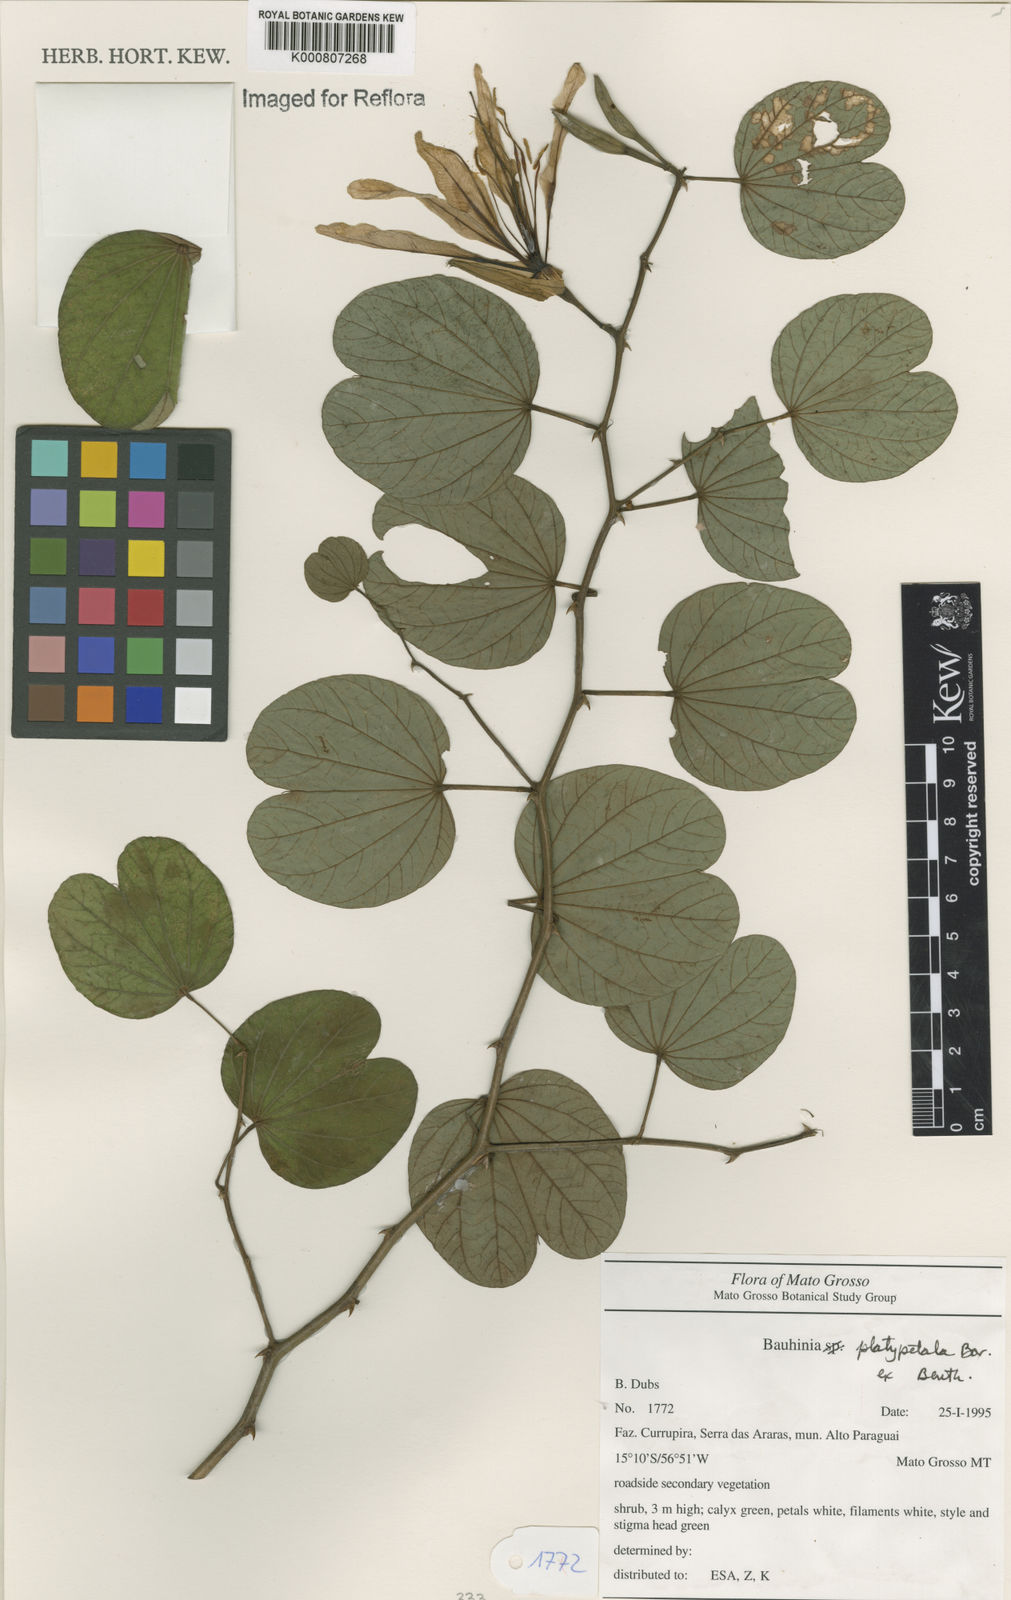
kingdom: Plantae
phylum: Tracheophyta
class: Magnoliopsida
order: Fabales
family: Fabaceae
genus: Bauhinia
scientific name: Bauhinia platypetala
